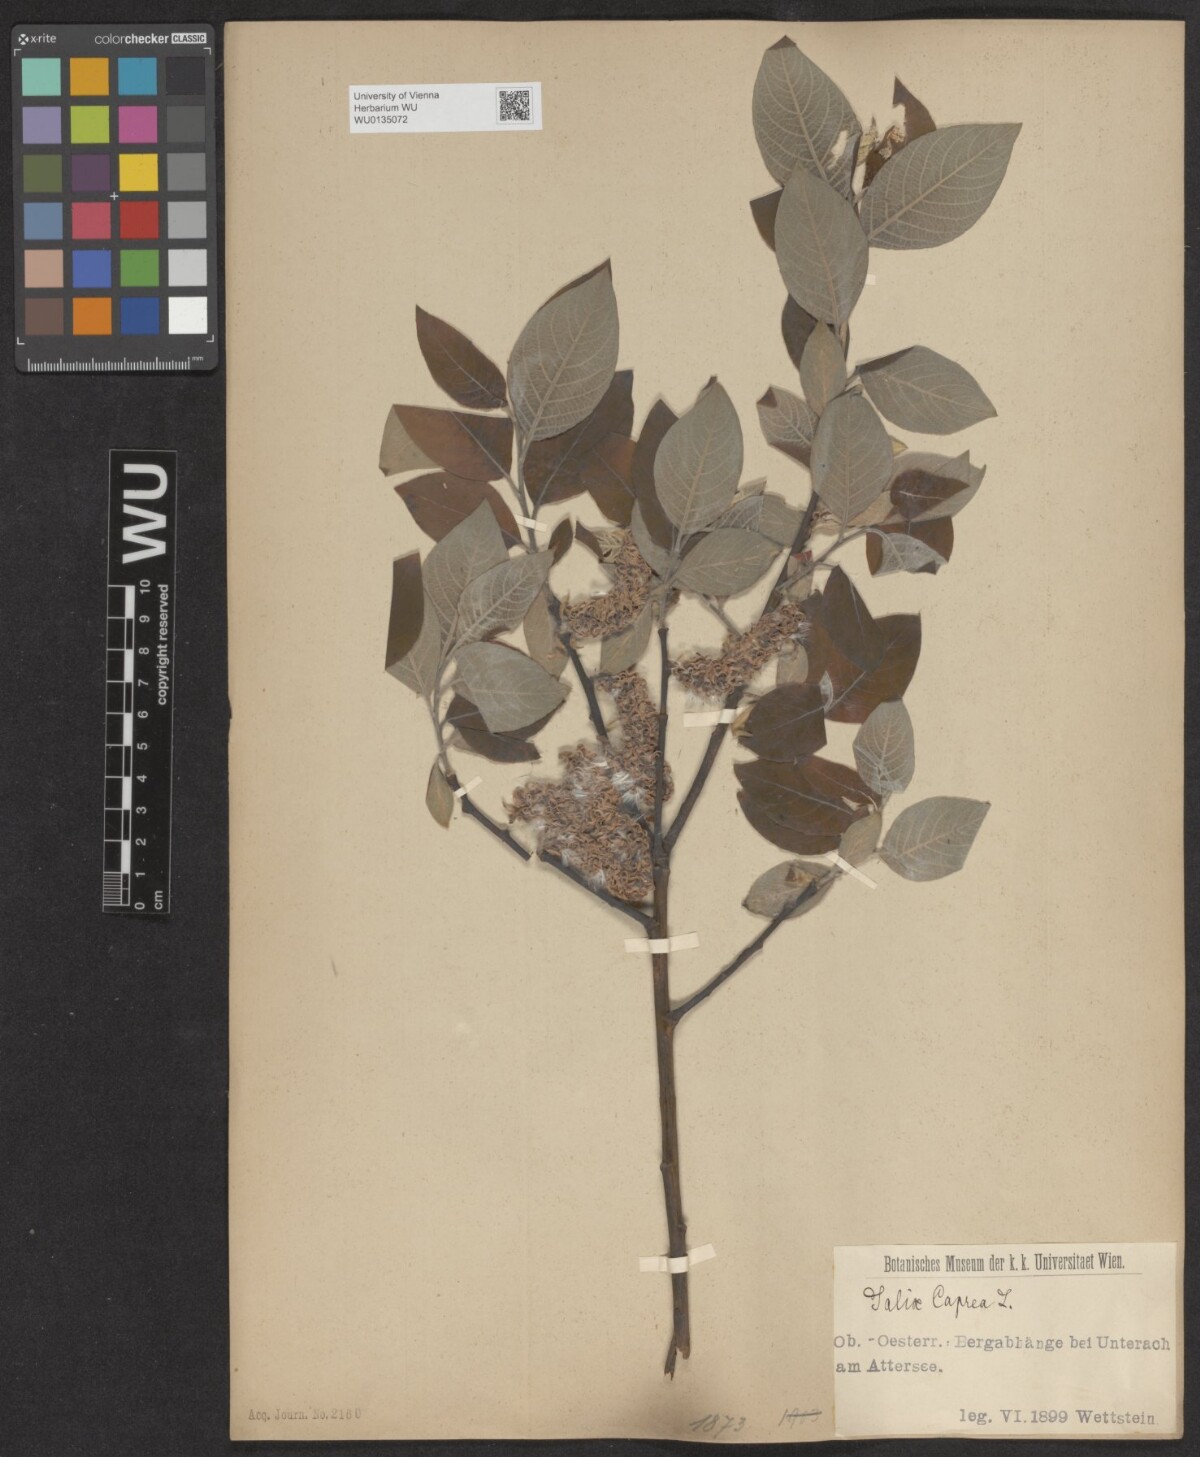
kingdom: Plantae
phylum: Tracheophyta
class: Magnoliopsida
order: Malpighiales
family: Salicaceae
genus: Salix
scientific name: Salix caprea
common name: Goat willow
